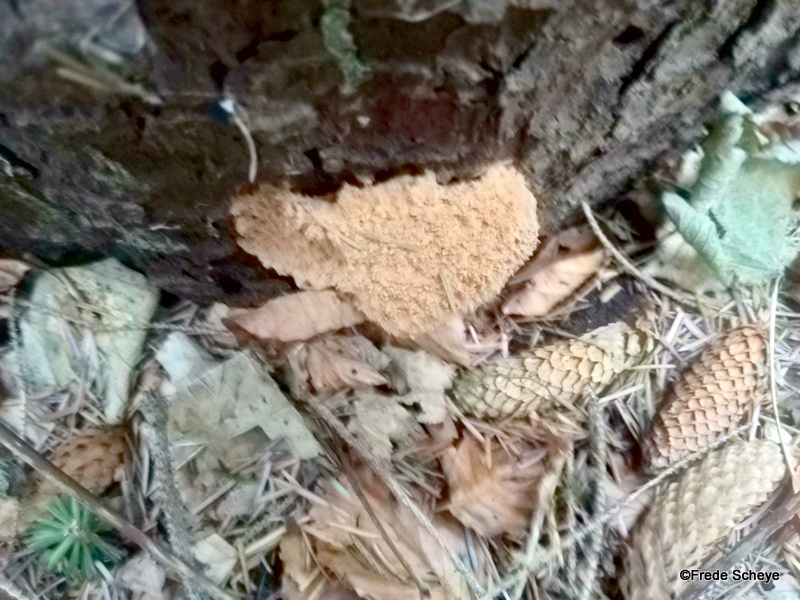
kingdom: Fungi
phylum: Basidiomycota
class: Agaricomycetes
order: Polyporales
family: Dacryobolaceae
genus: Postia
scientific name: Postia ptychogaster
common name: støvende kødporesvamp
